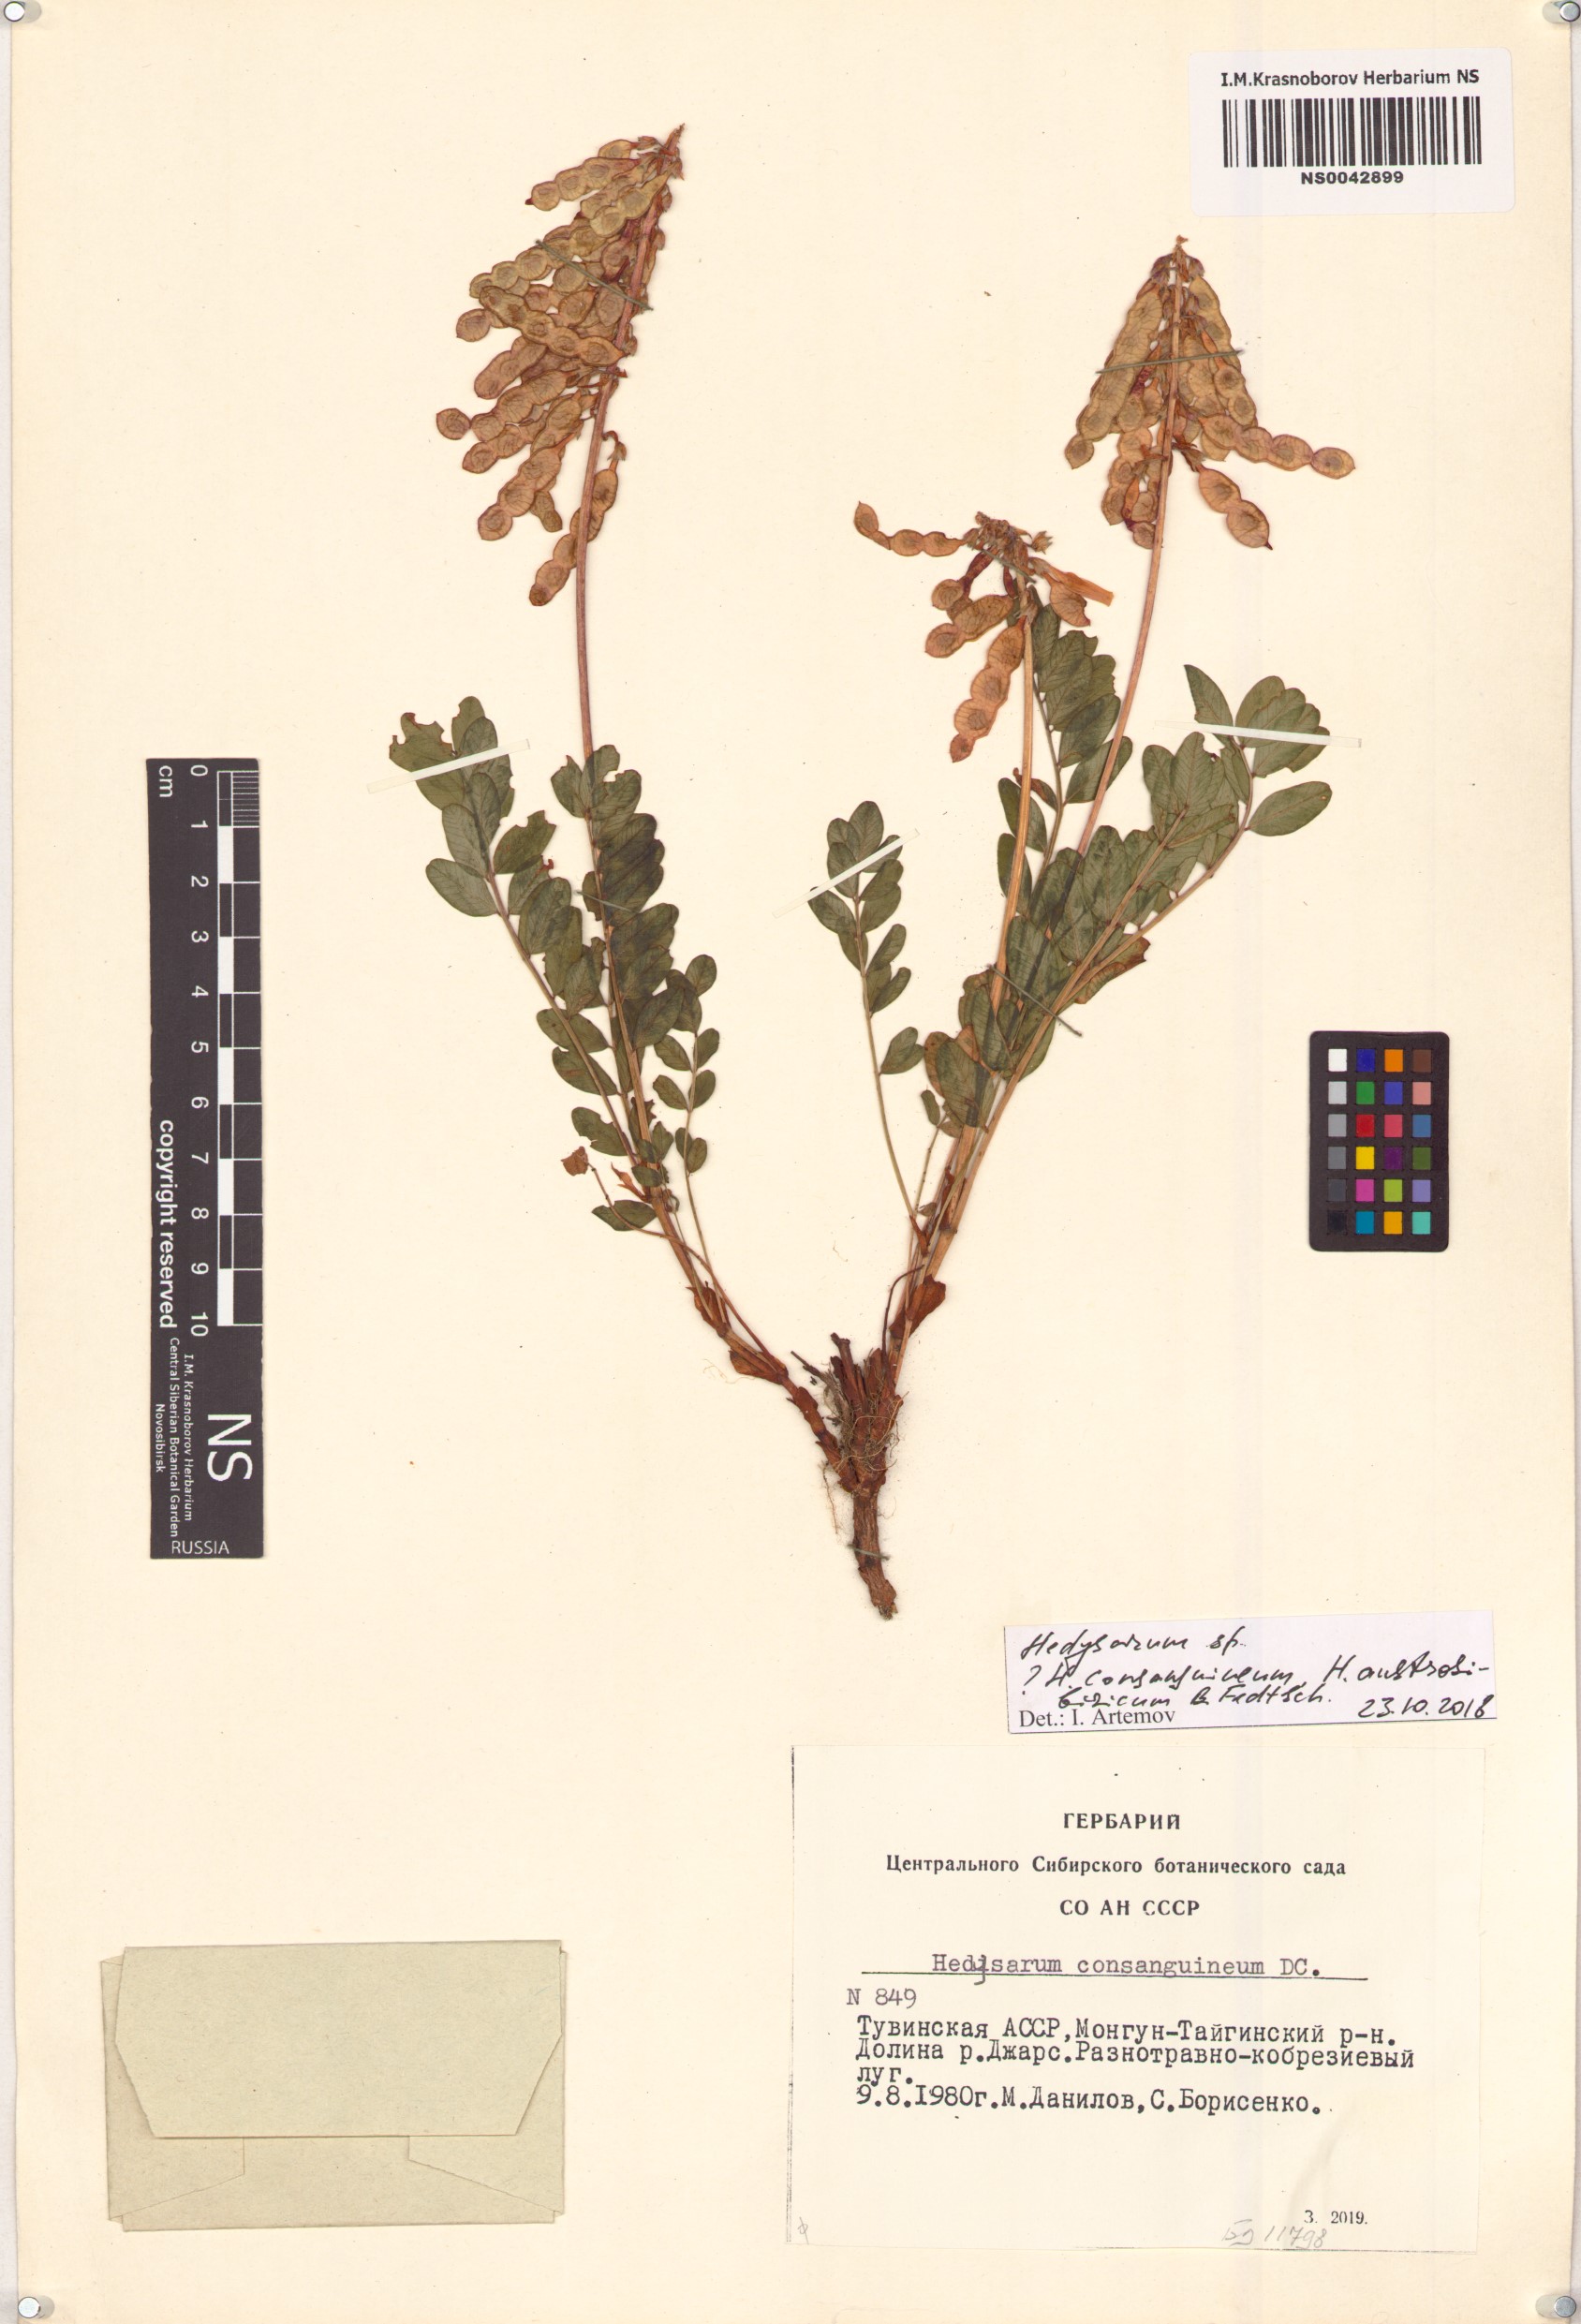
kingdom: Plantae
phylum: Tracheophyta
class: Magnoliopsida
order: Fabales
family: Fabaceae
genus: Hedysarum
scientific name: Hedysarum consanguineum
